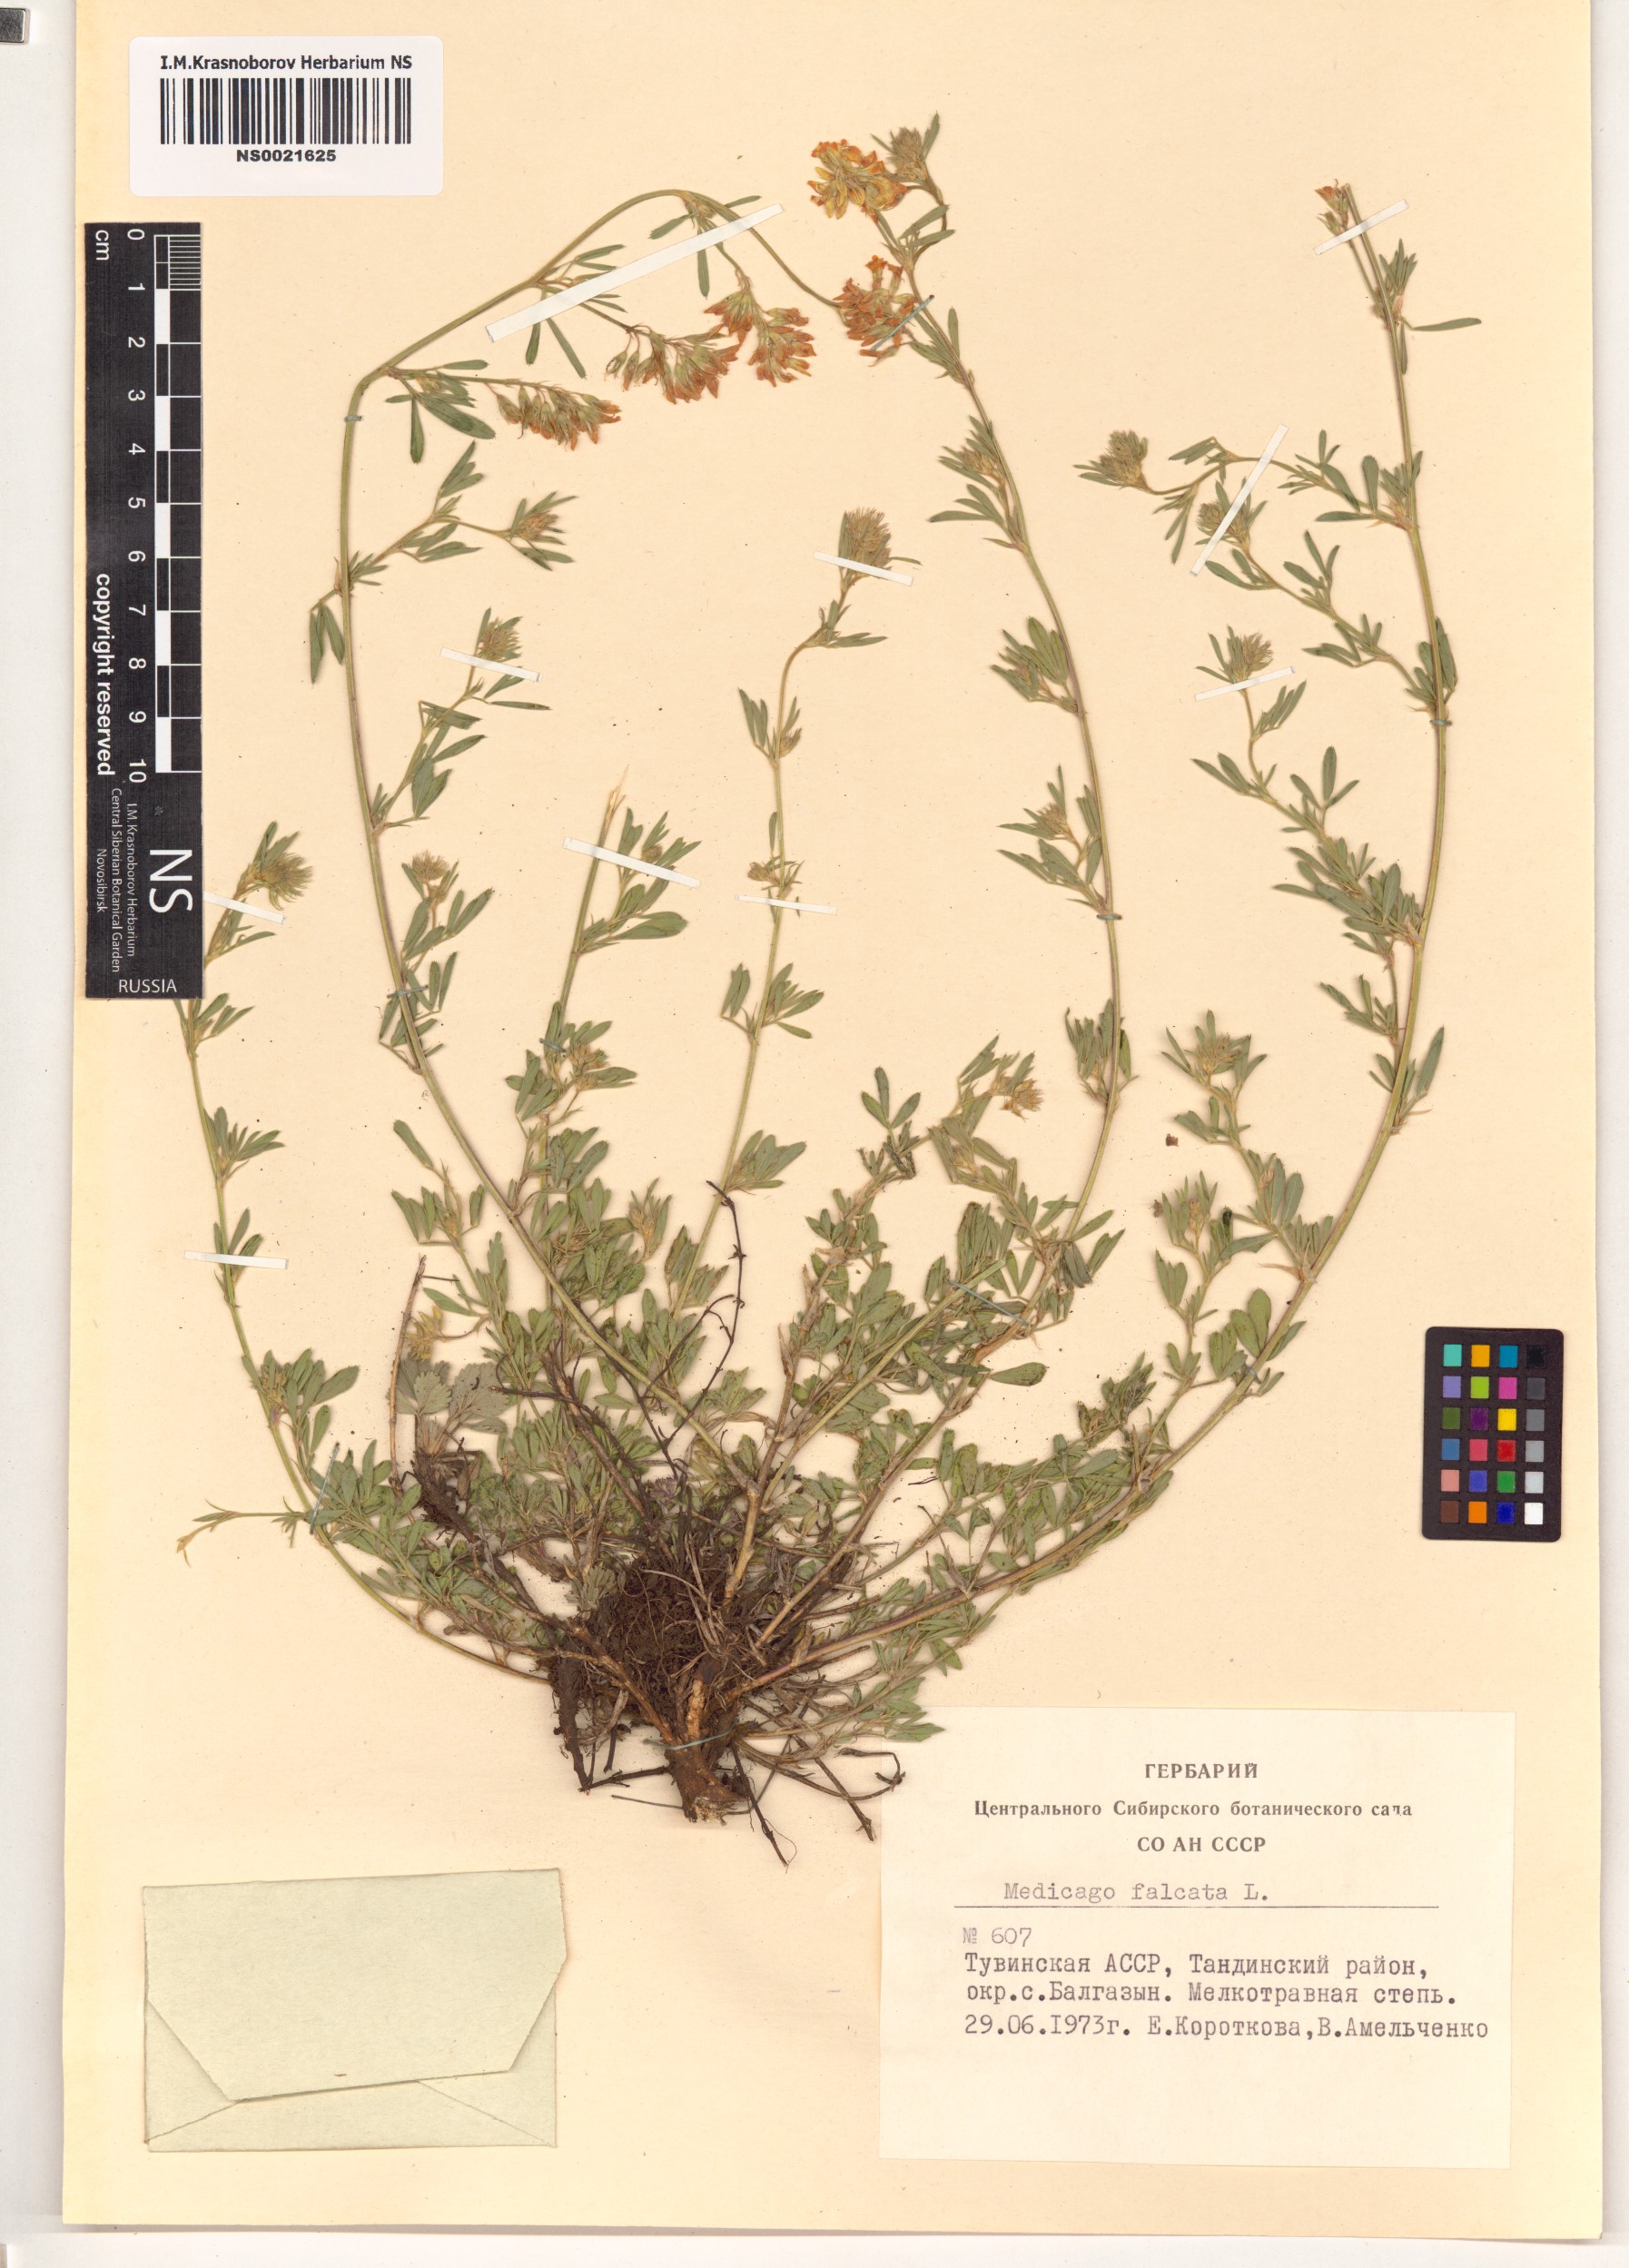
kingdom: Plantae
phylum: Tracheophyta
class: Magnoliopsida
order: Fabales
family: Fabaceae
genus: Medicago
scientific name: Medicago falcata
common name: Sickle medick
